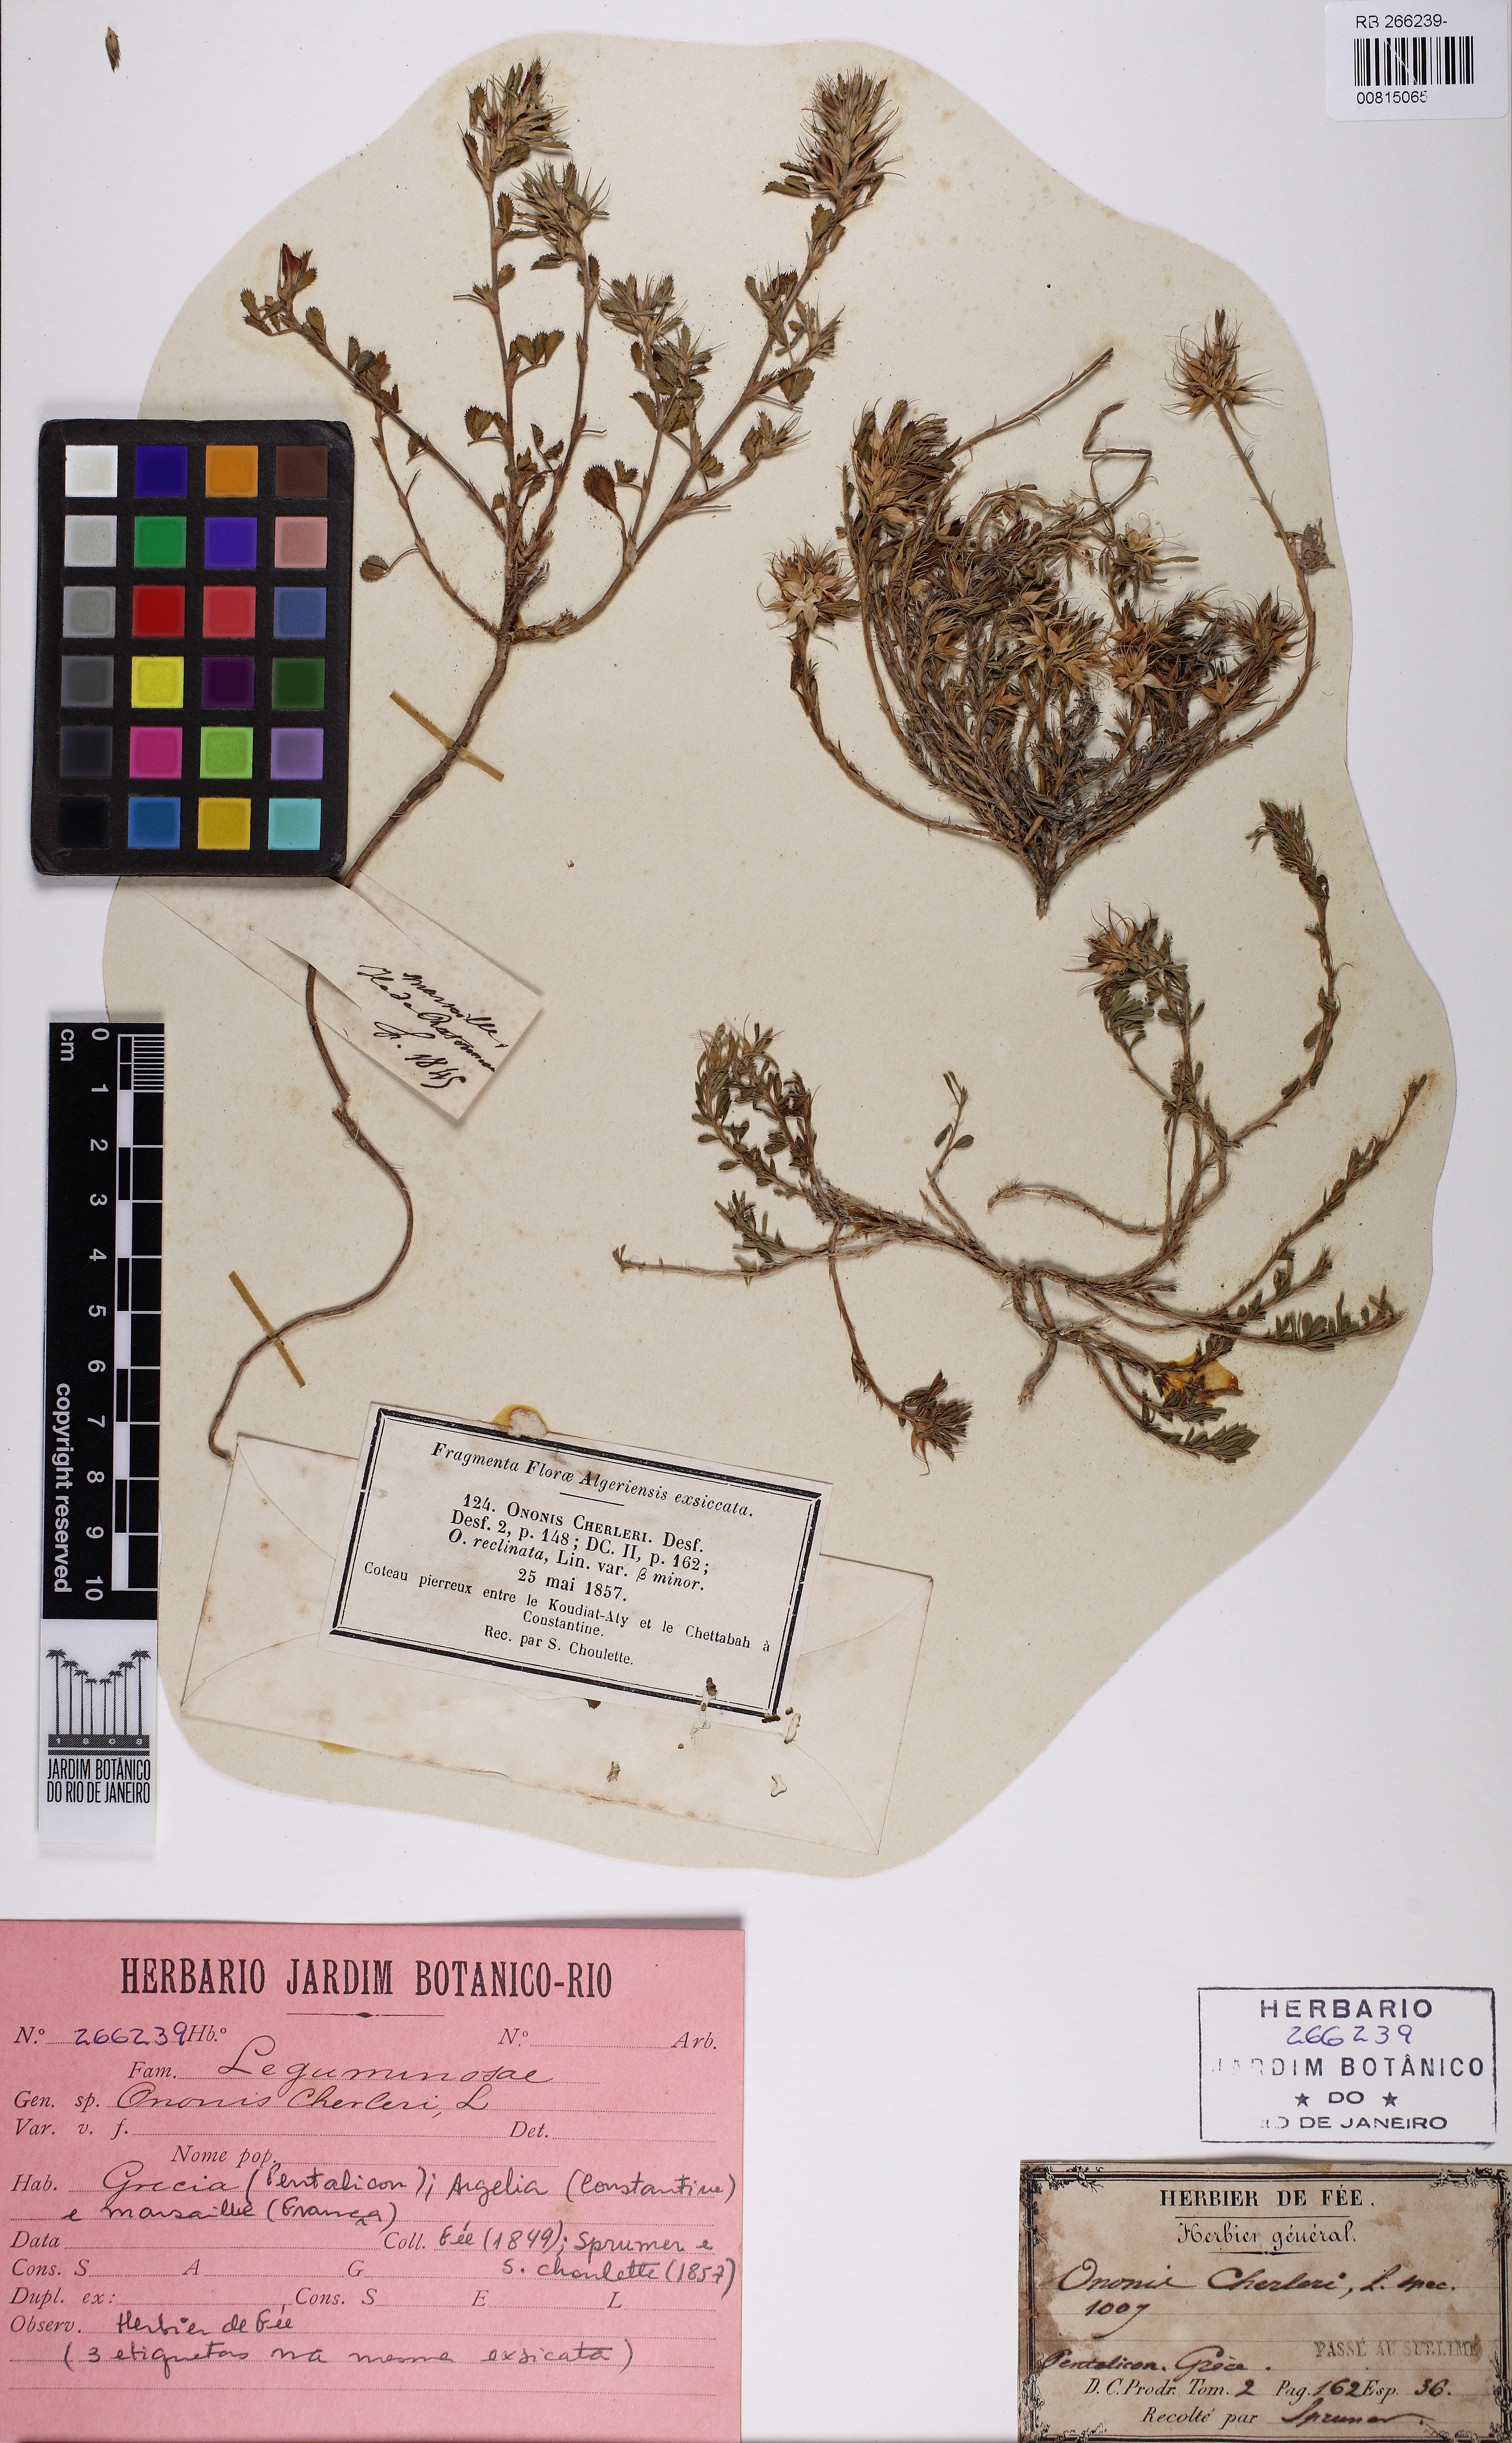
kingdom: Plantae
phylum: Tracheophyta
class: Magnoliopsida
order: Fabales
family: Fabaceae
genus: Ononis
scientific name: Ononis reclinata
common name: Small restharrow
